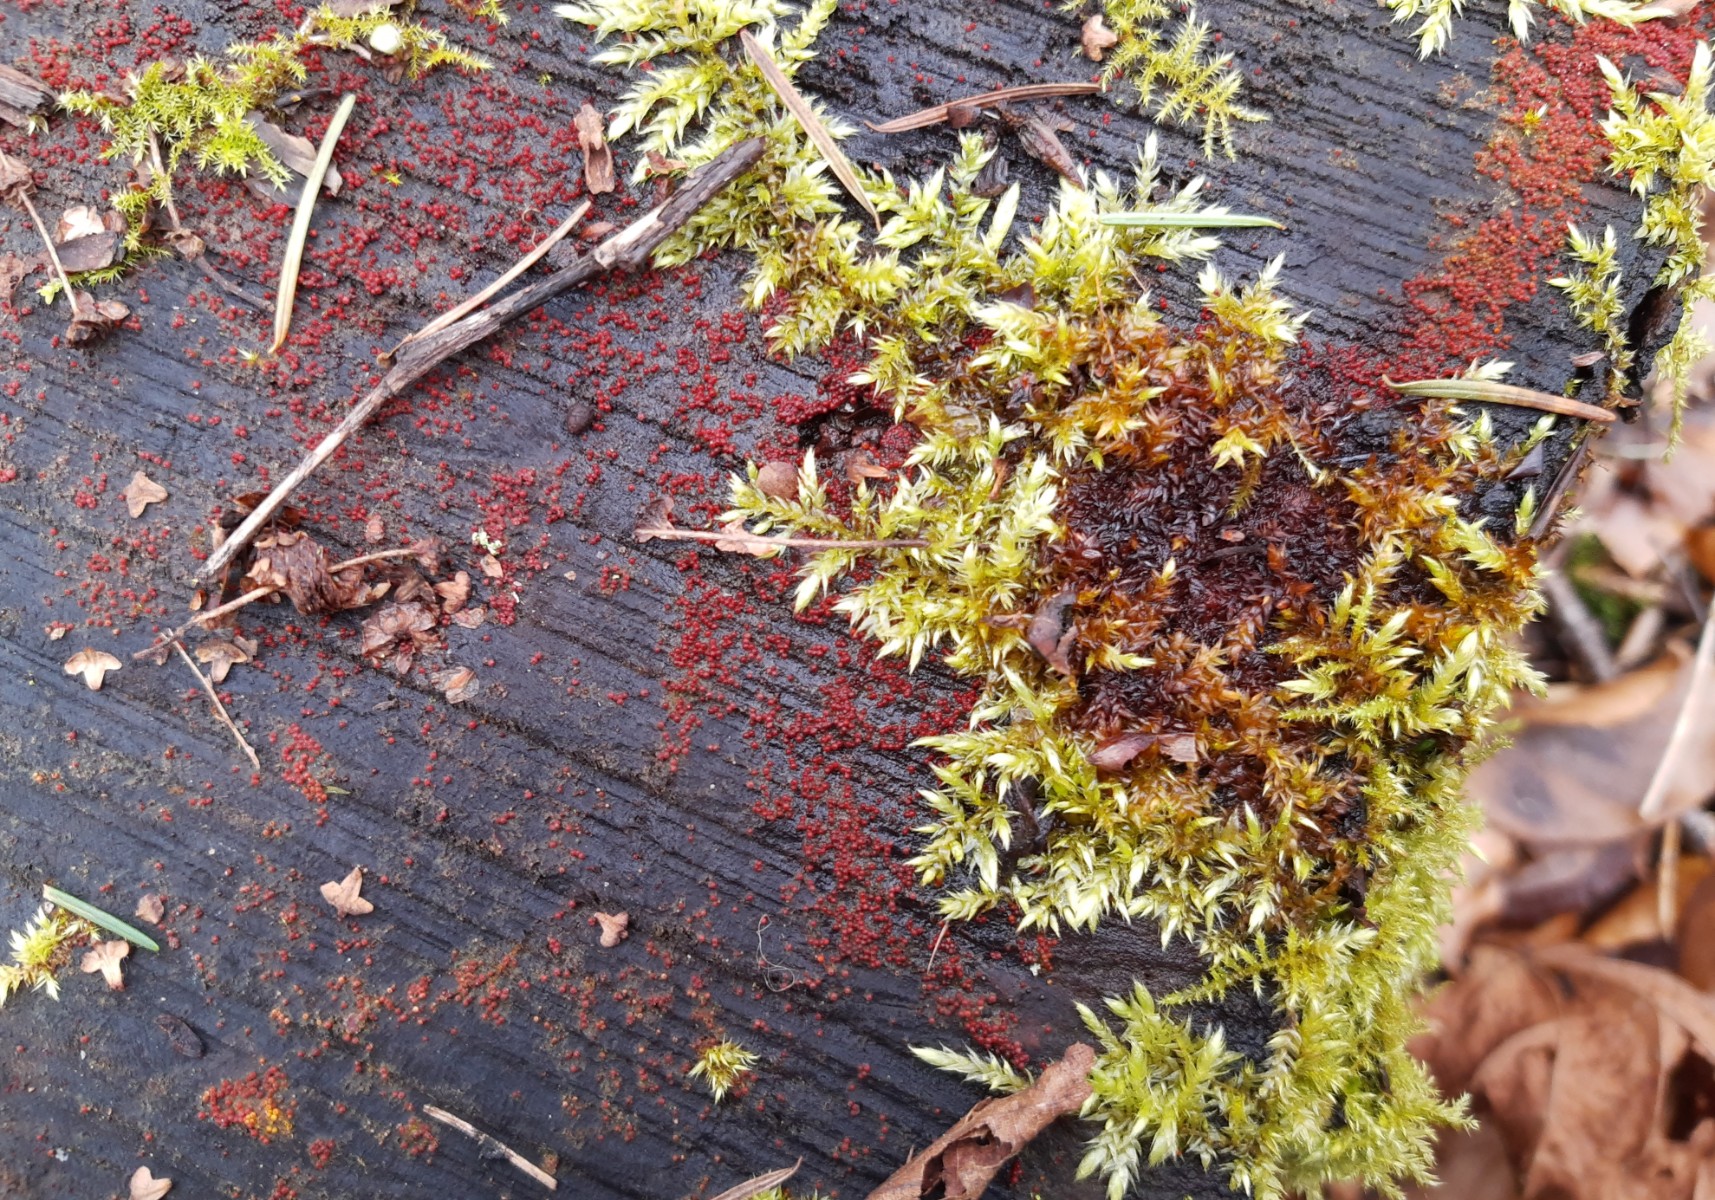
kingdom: Fungi
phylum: Ascomycota
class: Sordariomycetes
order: Hypocreales
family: Nectriaceae
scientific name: Nectriaceae
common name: cinnobersvampfamilien
